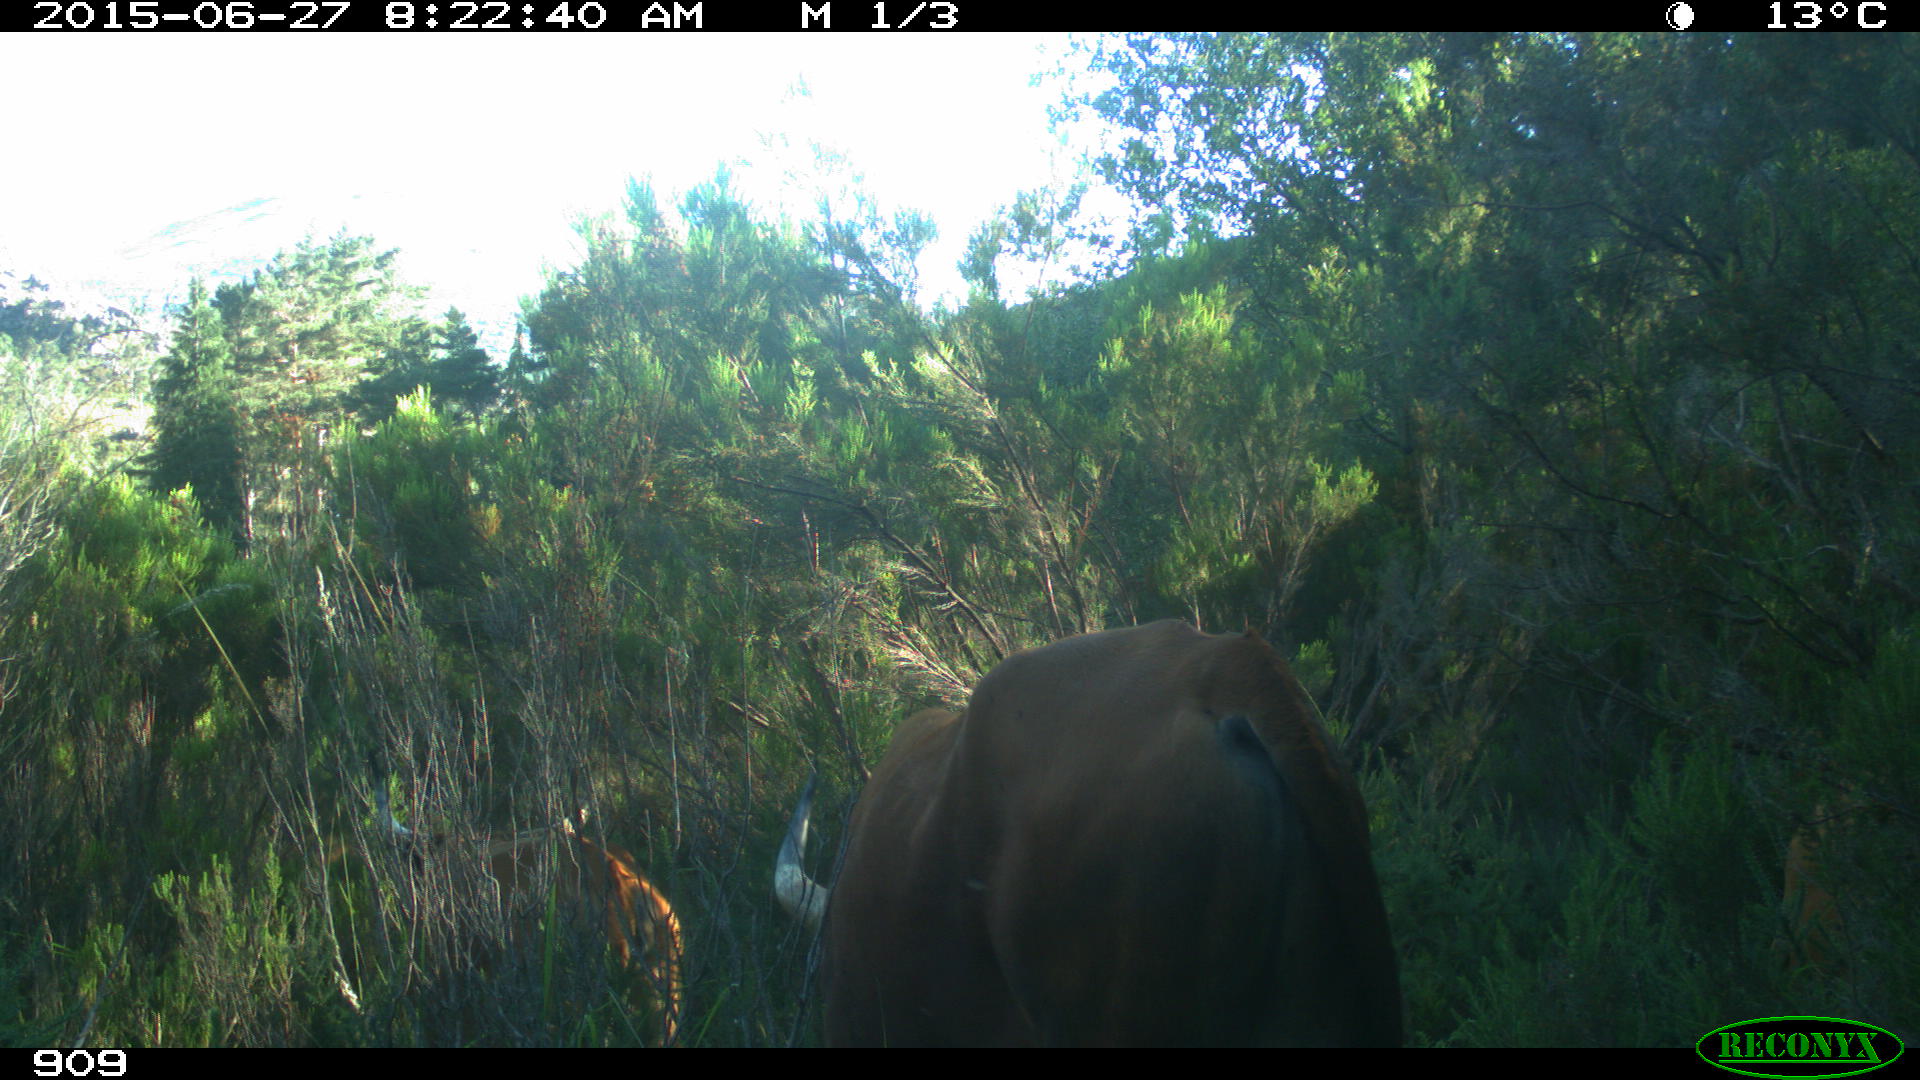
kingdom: Animalia
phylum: Chordata
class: Mammalia
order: Artiodactyla
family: Bovidae
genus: Bos
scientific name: Bos taurus
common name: Domesticated cattle
